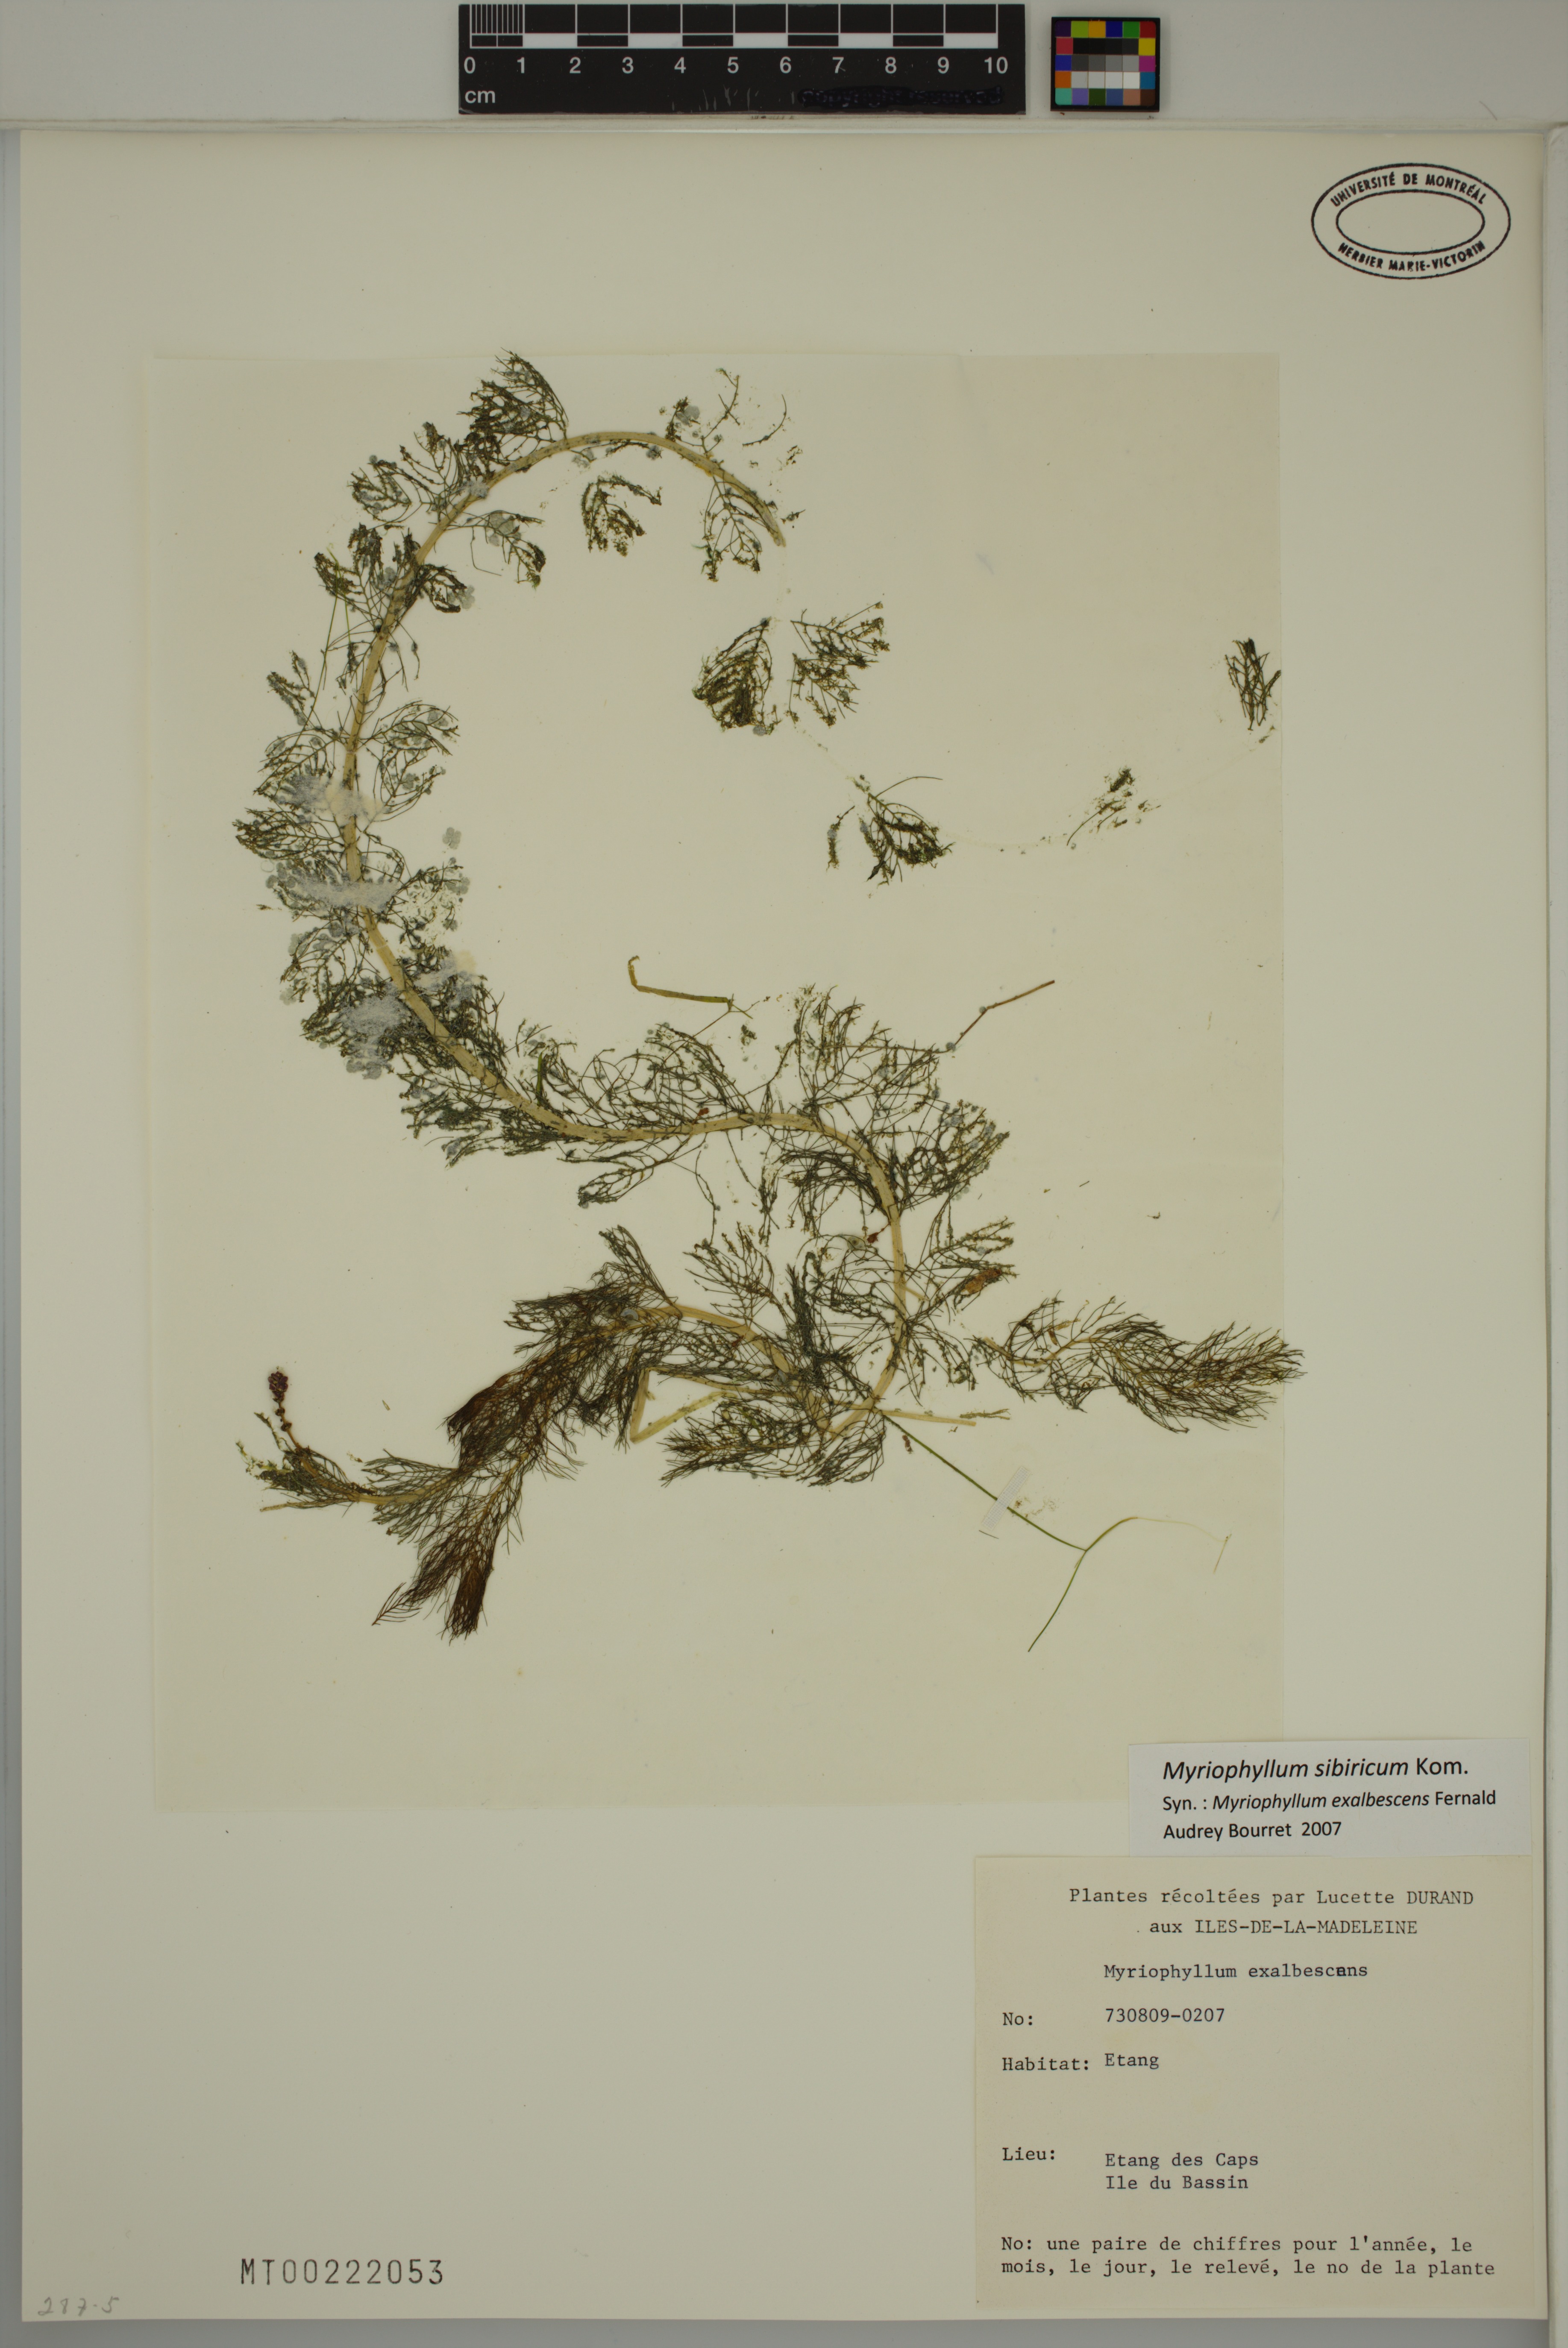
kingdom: Plantae
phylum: Tracheophyta
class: Magnoliopsida
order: Saxifragales
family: Haloragaceae
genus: Myriophyllum
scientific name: Myriophyllum sibiricum
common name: Siberian water-milfoil
